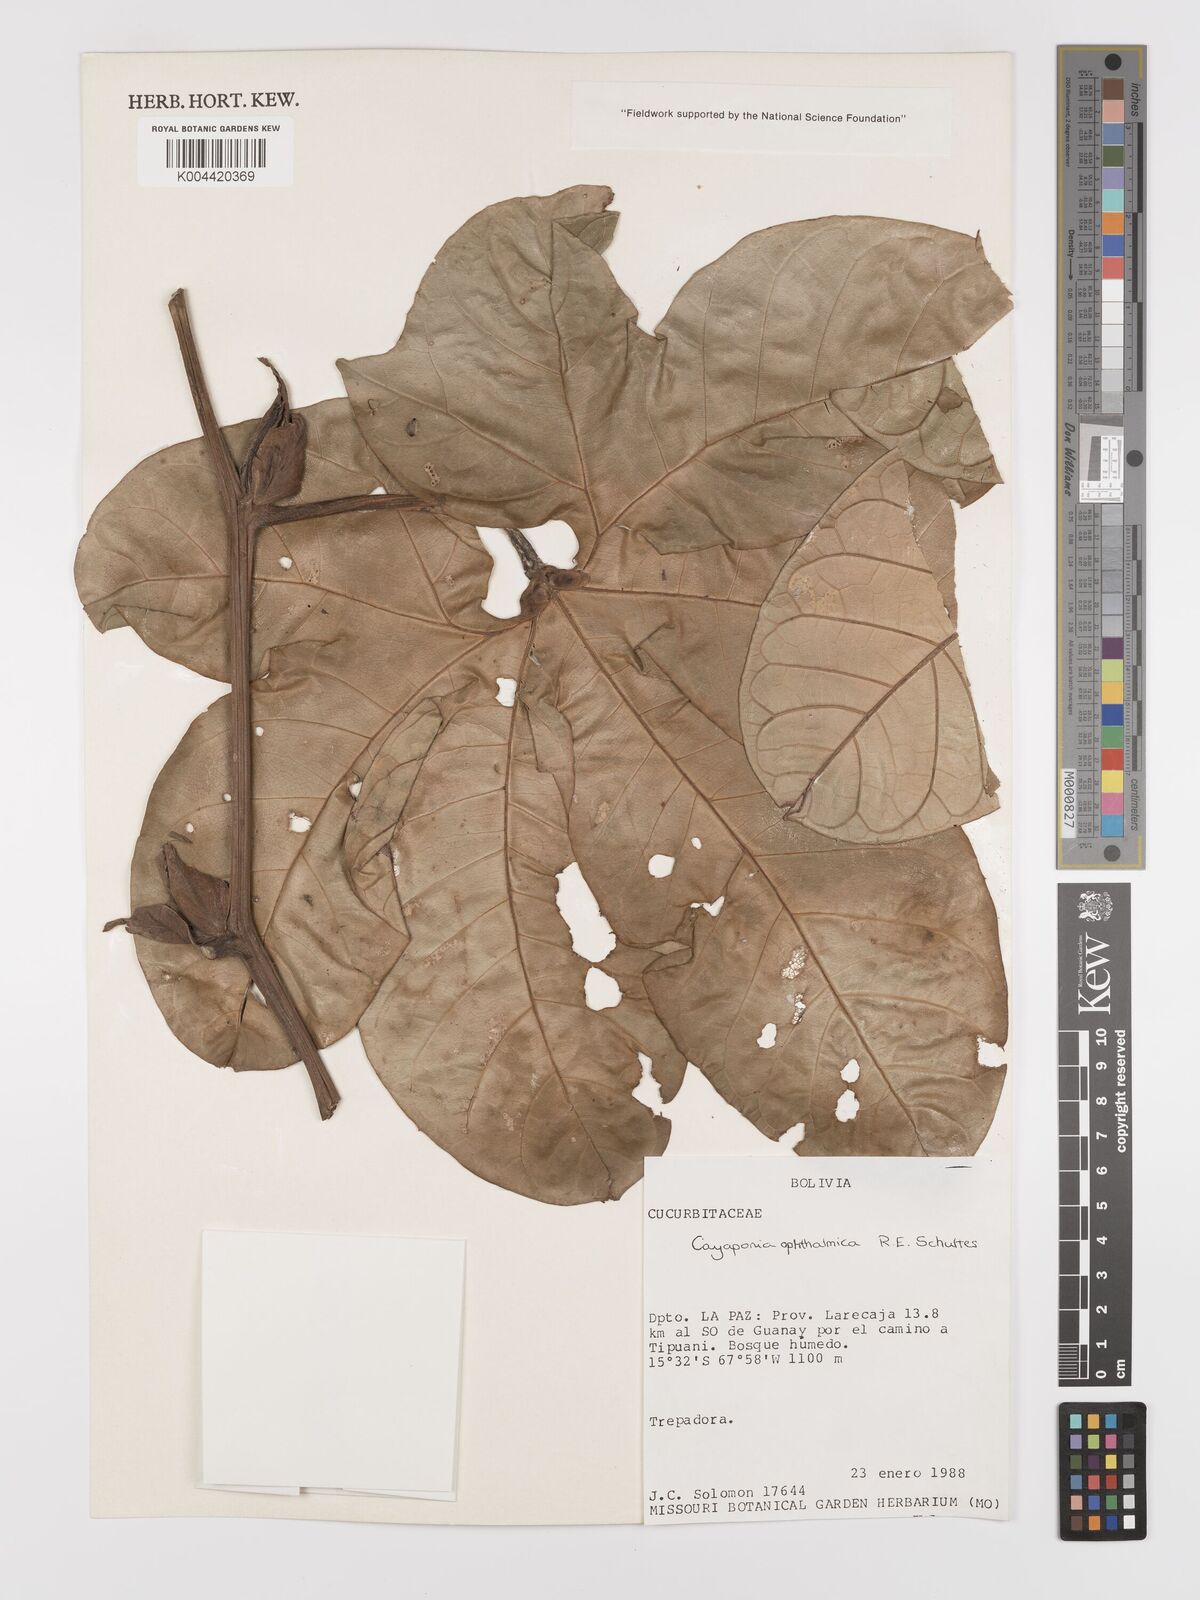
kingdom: Plantae
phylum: Tracheophyta
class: Magnoliopsida
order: Cucurbitales
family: Cucurbitaceae
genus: Cayaponia
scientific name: Cayaponia ophthalmica
